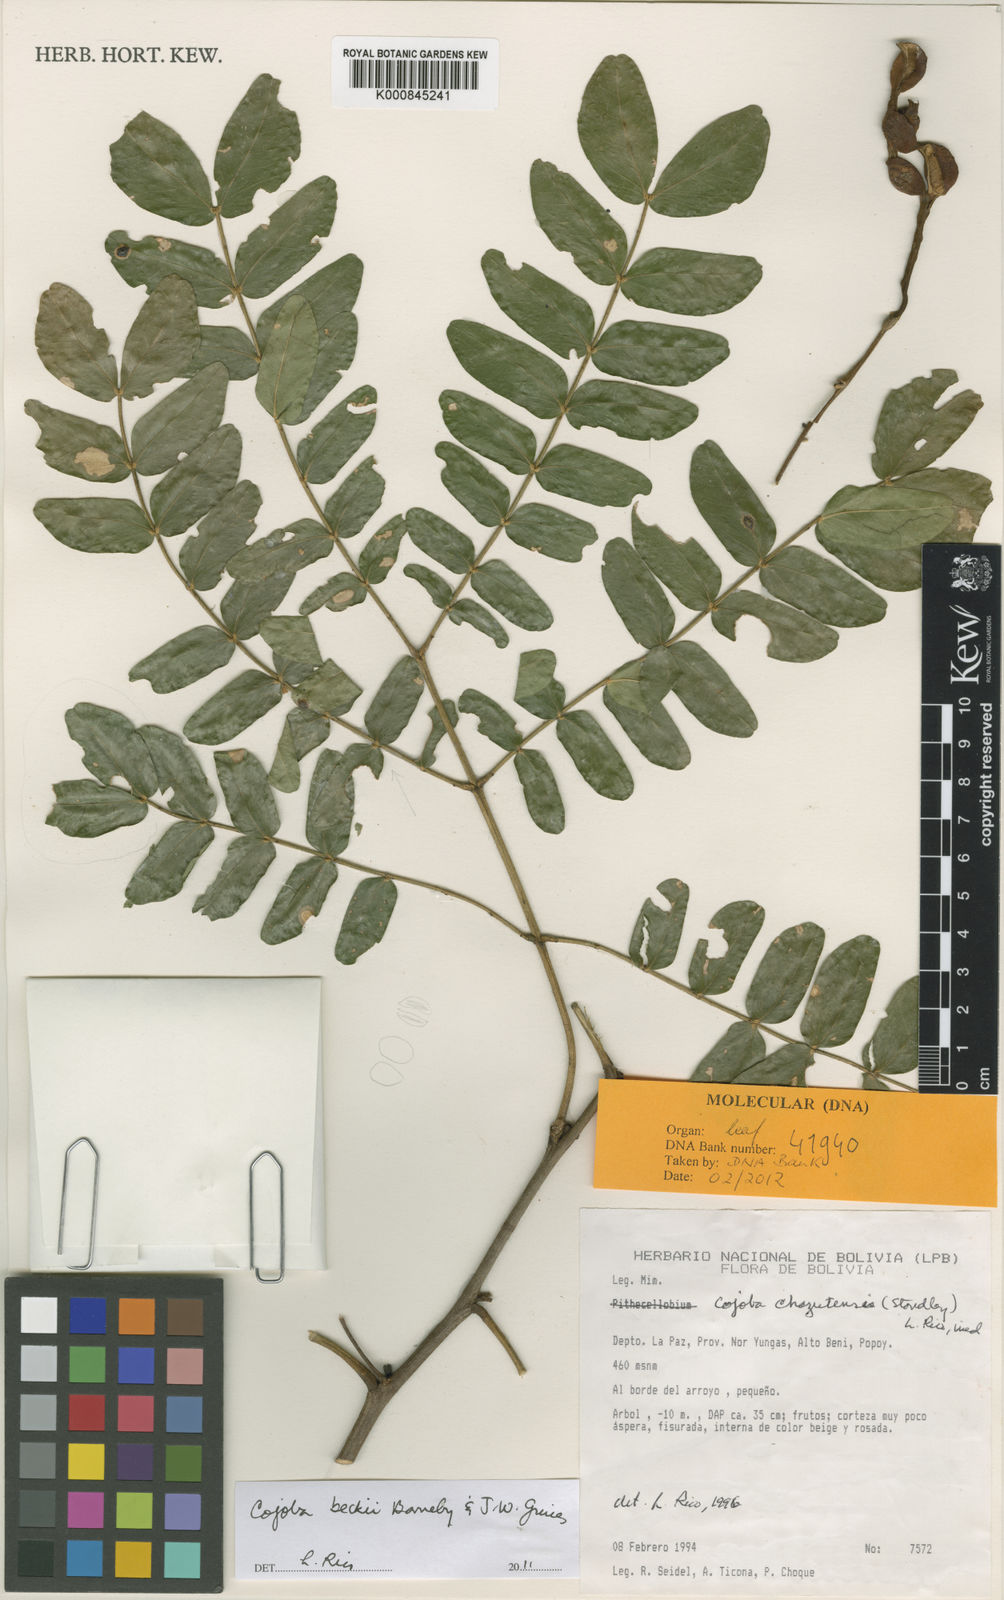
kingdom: Plantae
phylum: Tracheophyta
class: Magnoliopsida
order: Fabales
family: Fabaceae
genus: Cojoba
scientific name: Cojoba beckii
